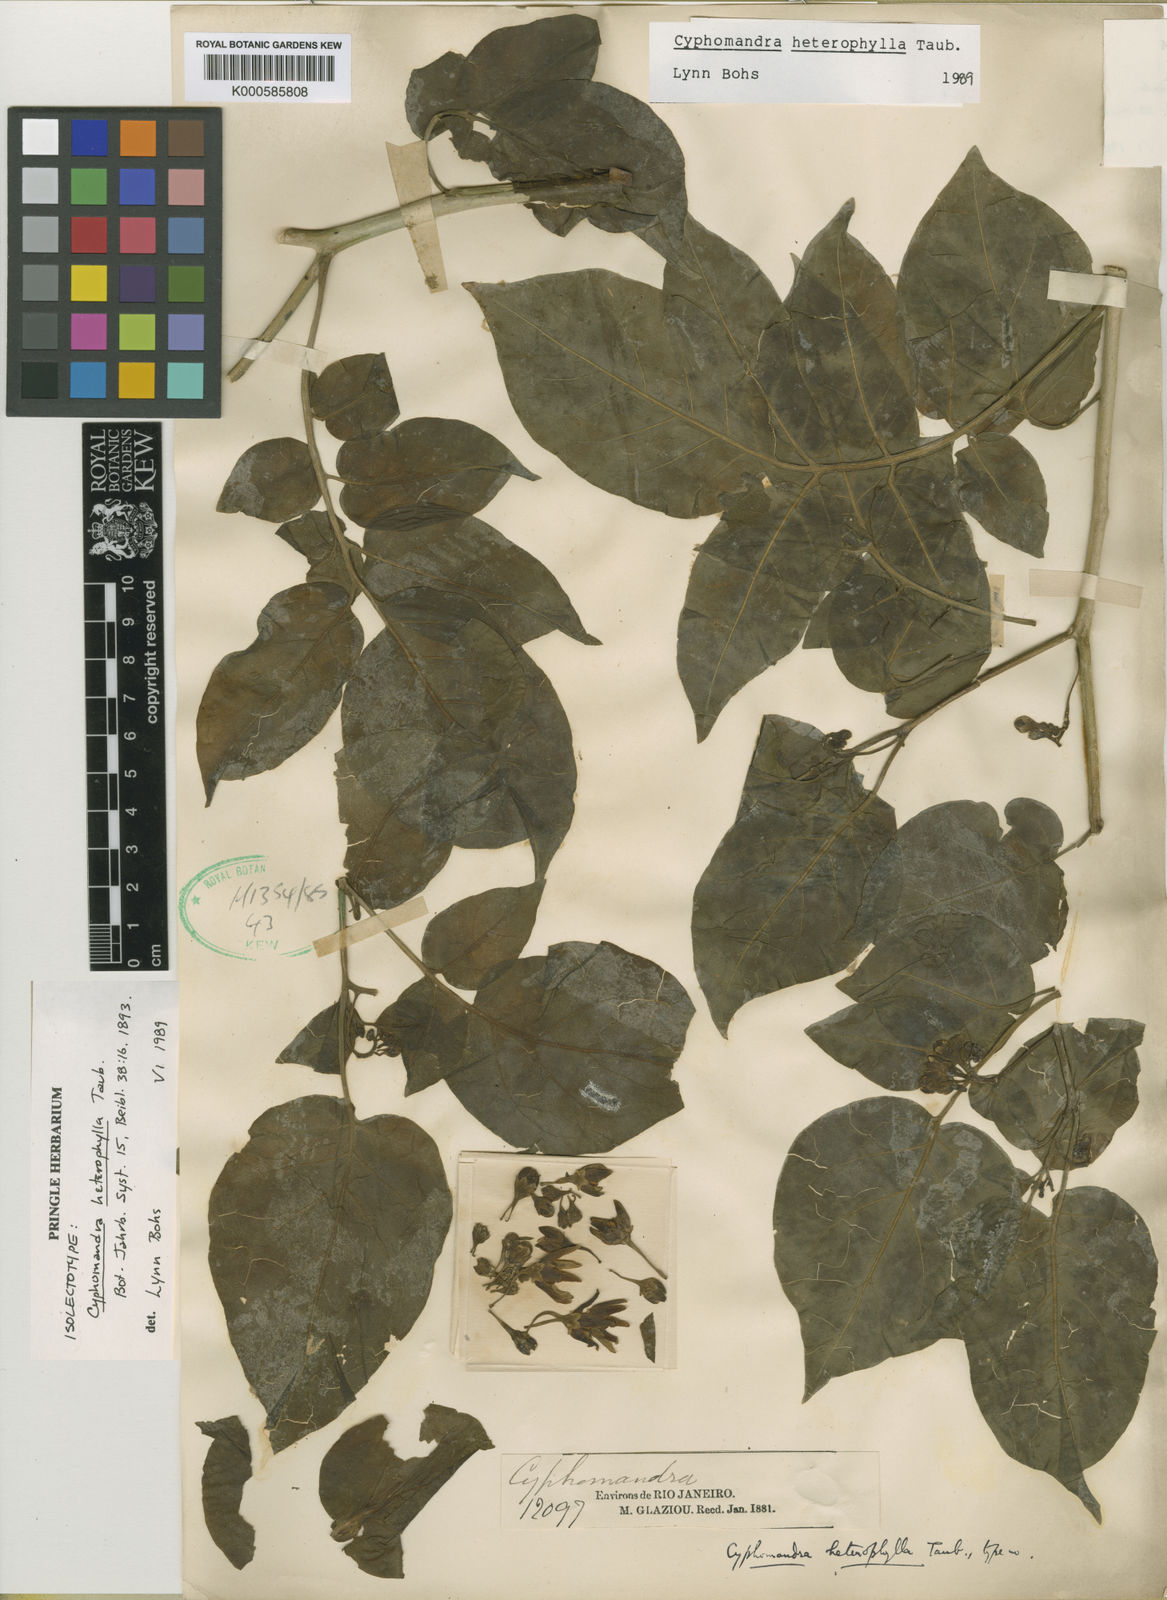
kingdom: Plantae
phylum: Tracheophyta
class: Magnoliopsida
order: Solanales
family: Solanaceae
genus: Solanum
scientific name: Solanum paralum
